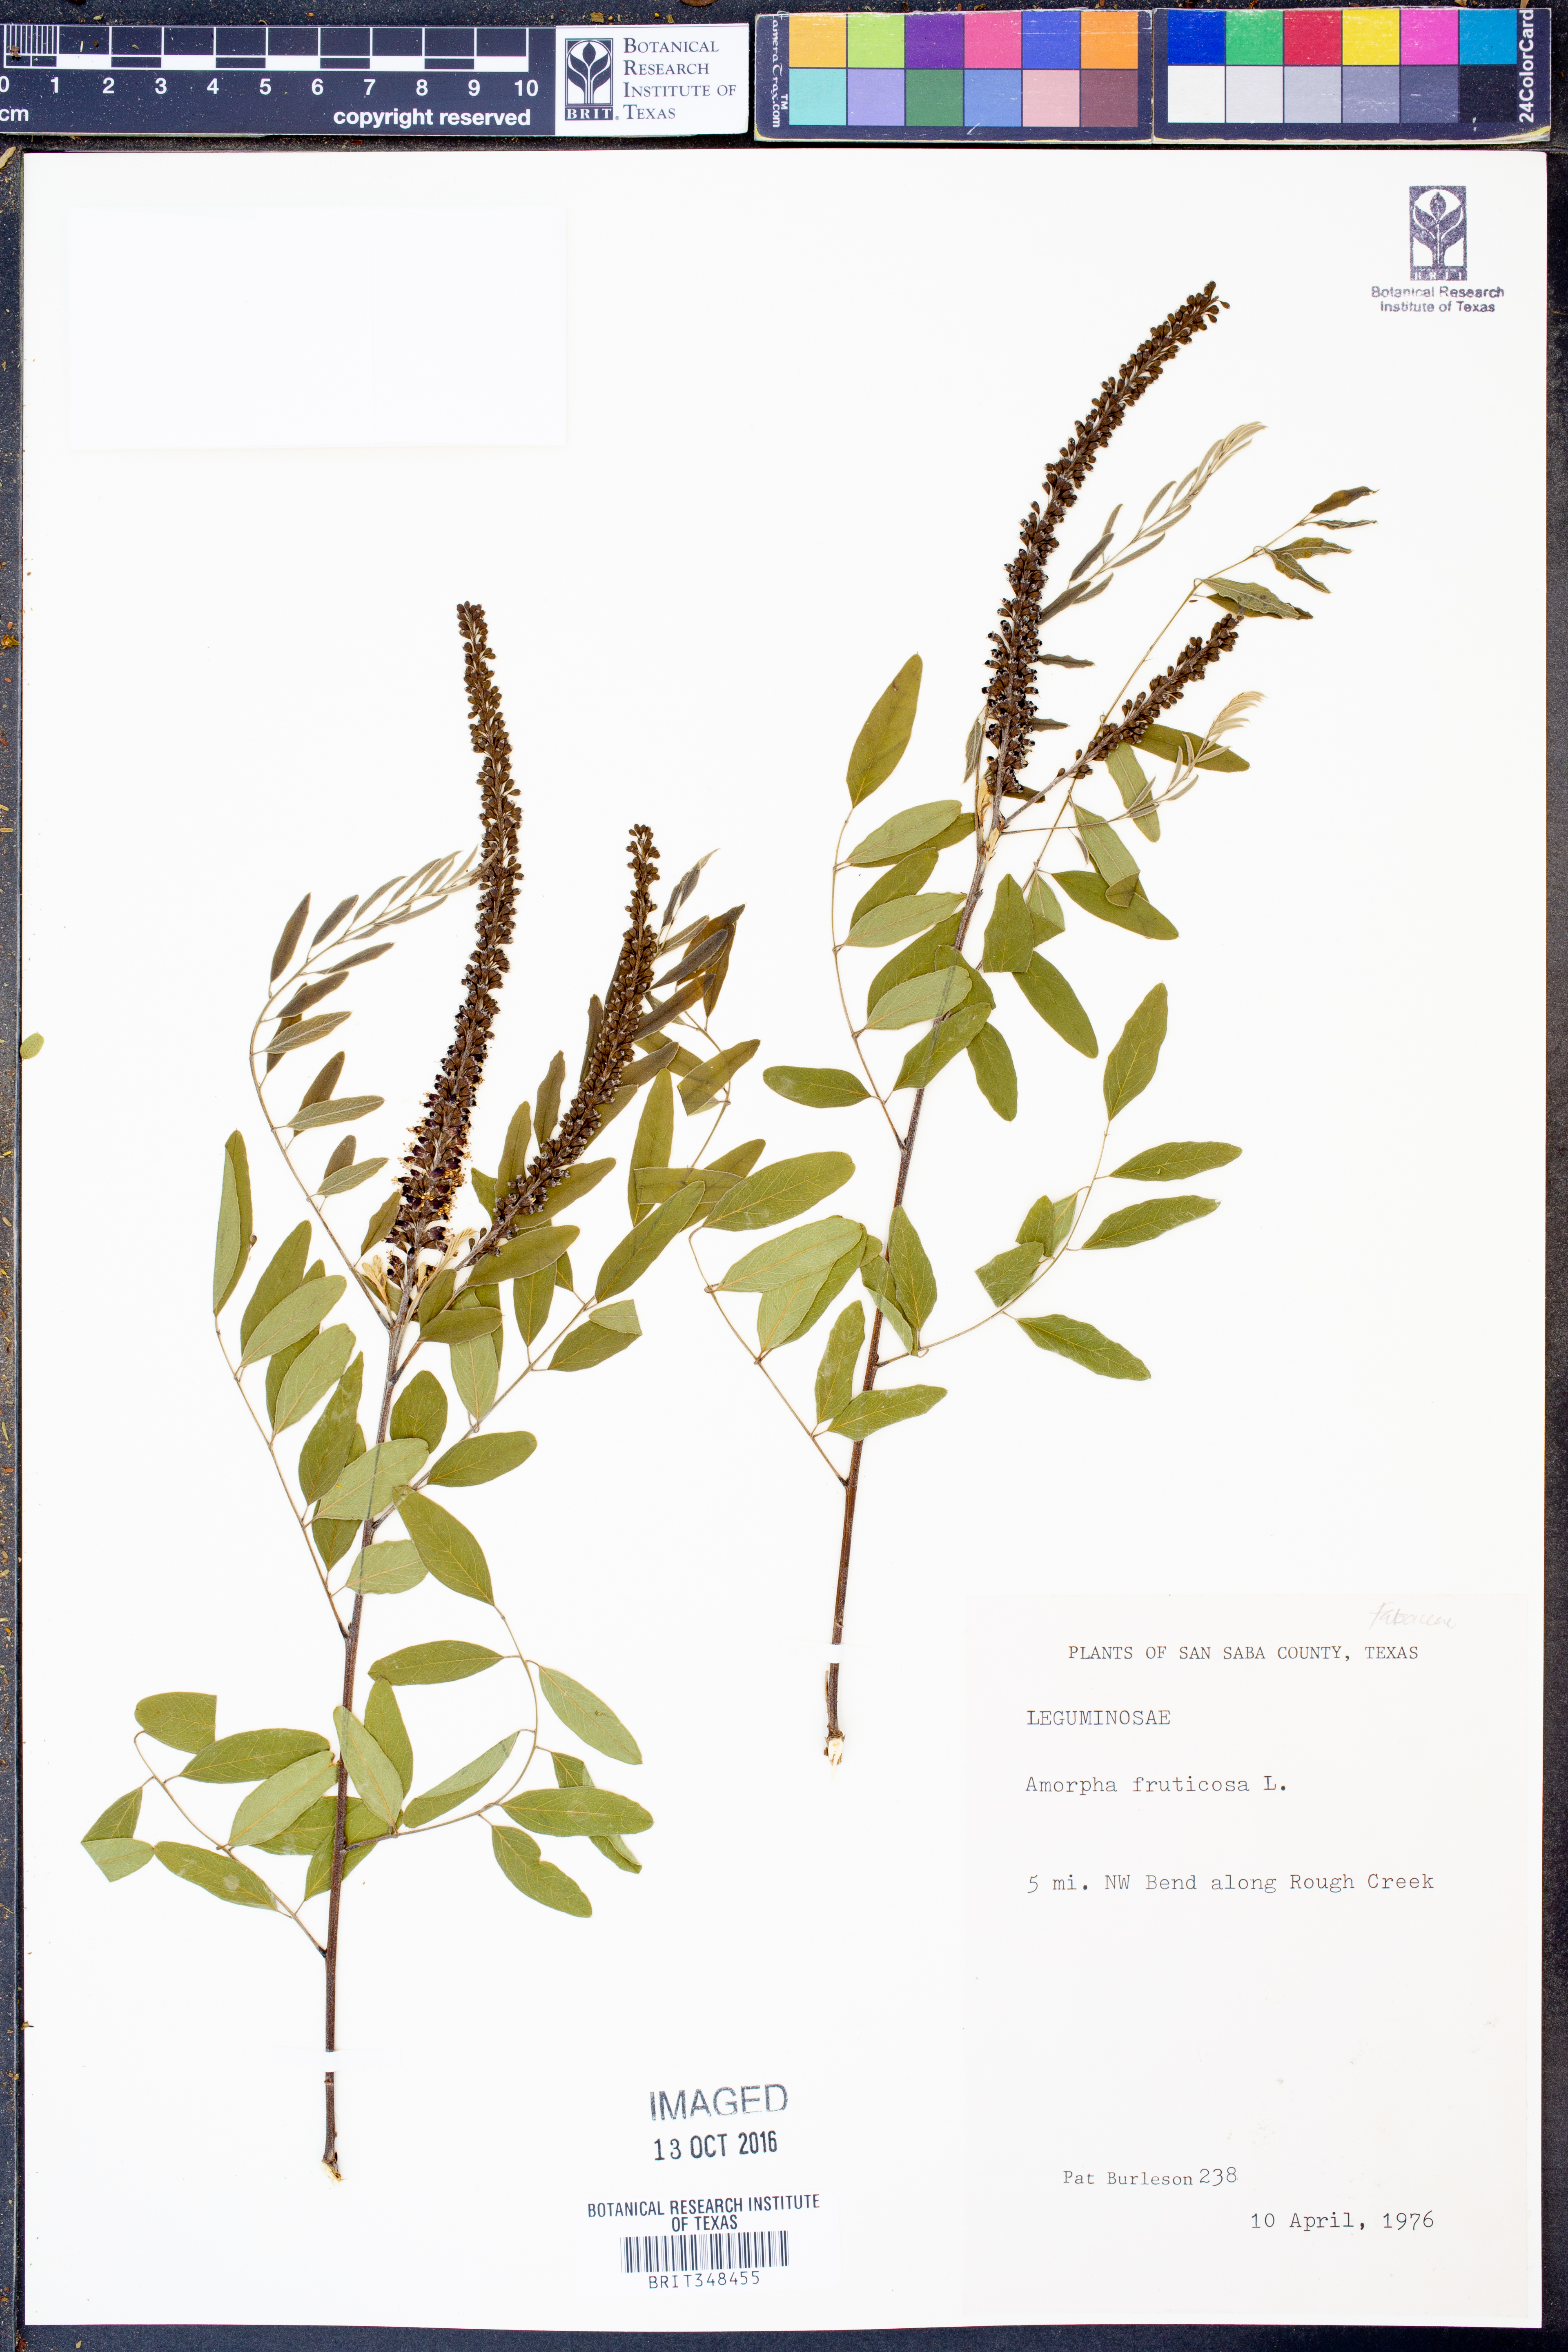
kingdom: Plantae
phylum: Tracheophyta
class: Magnoliopsida
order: Fabales
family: Fabaceae
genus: Amorpha
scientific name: Amorpha fruticosa
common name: False indigo
